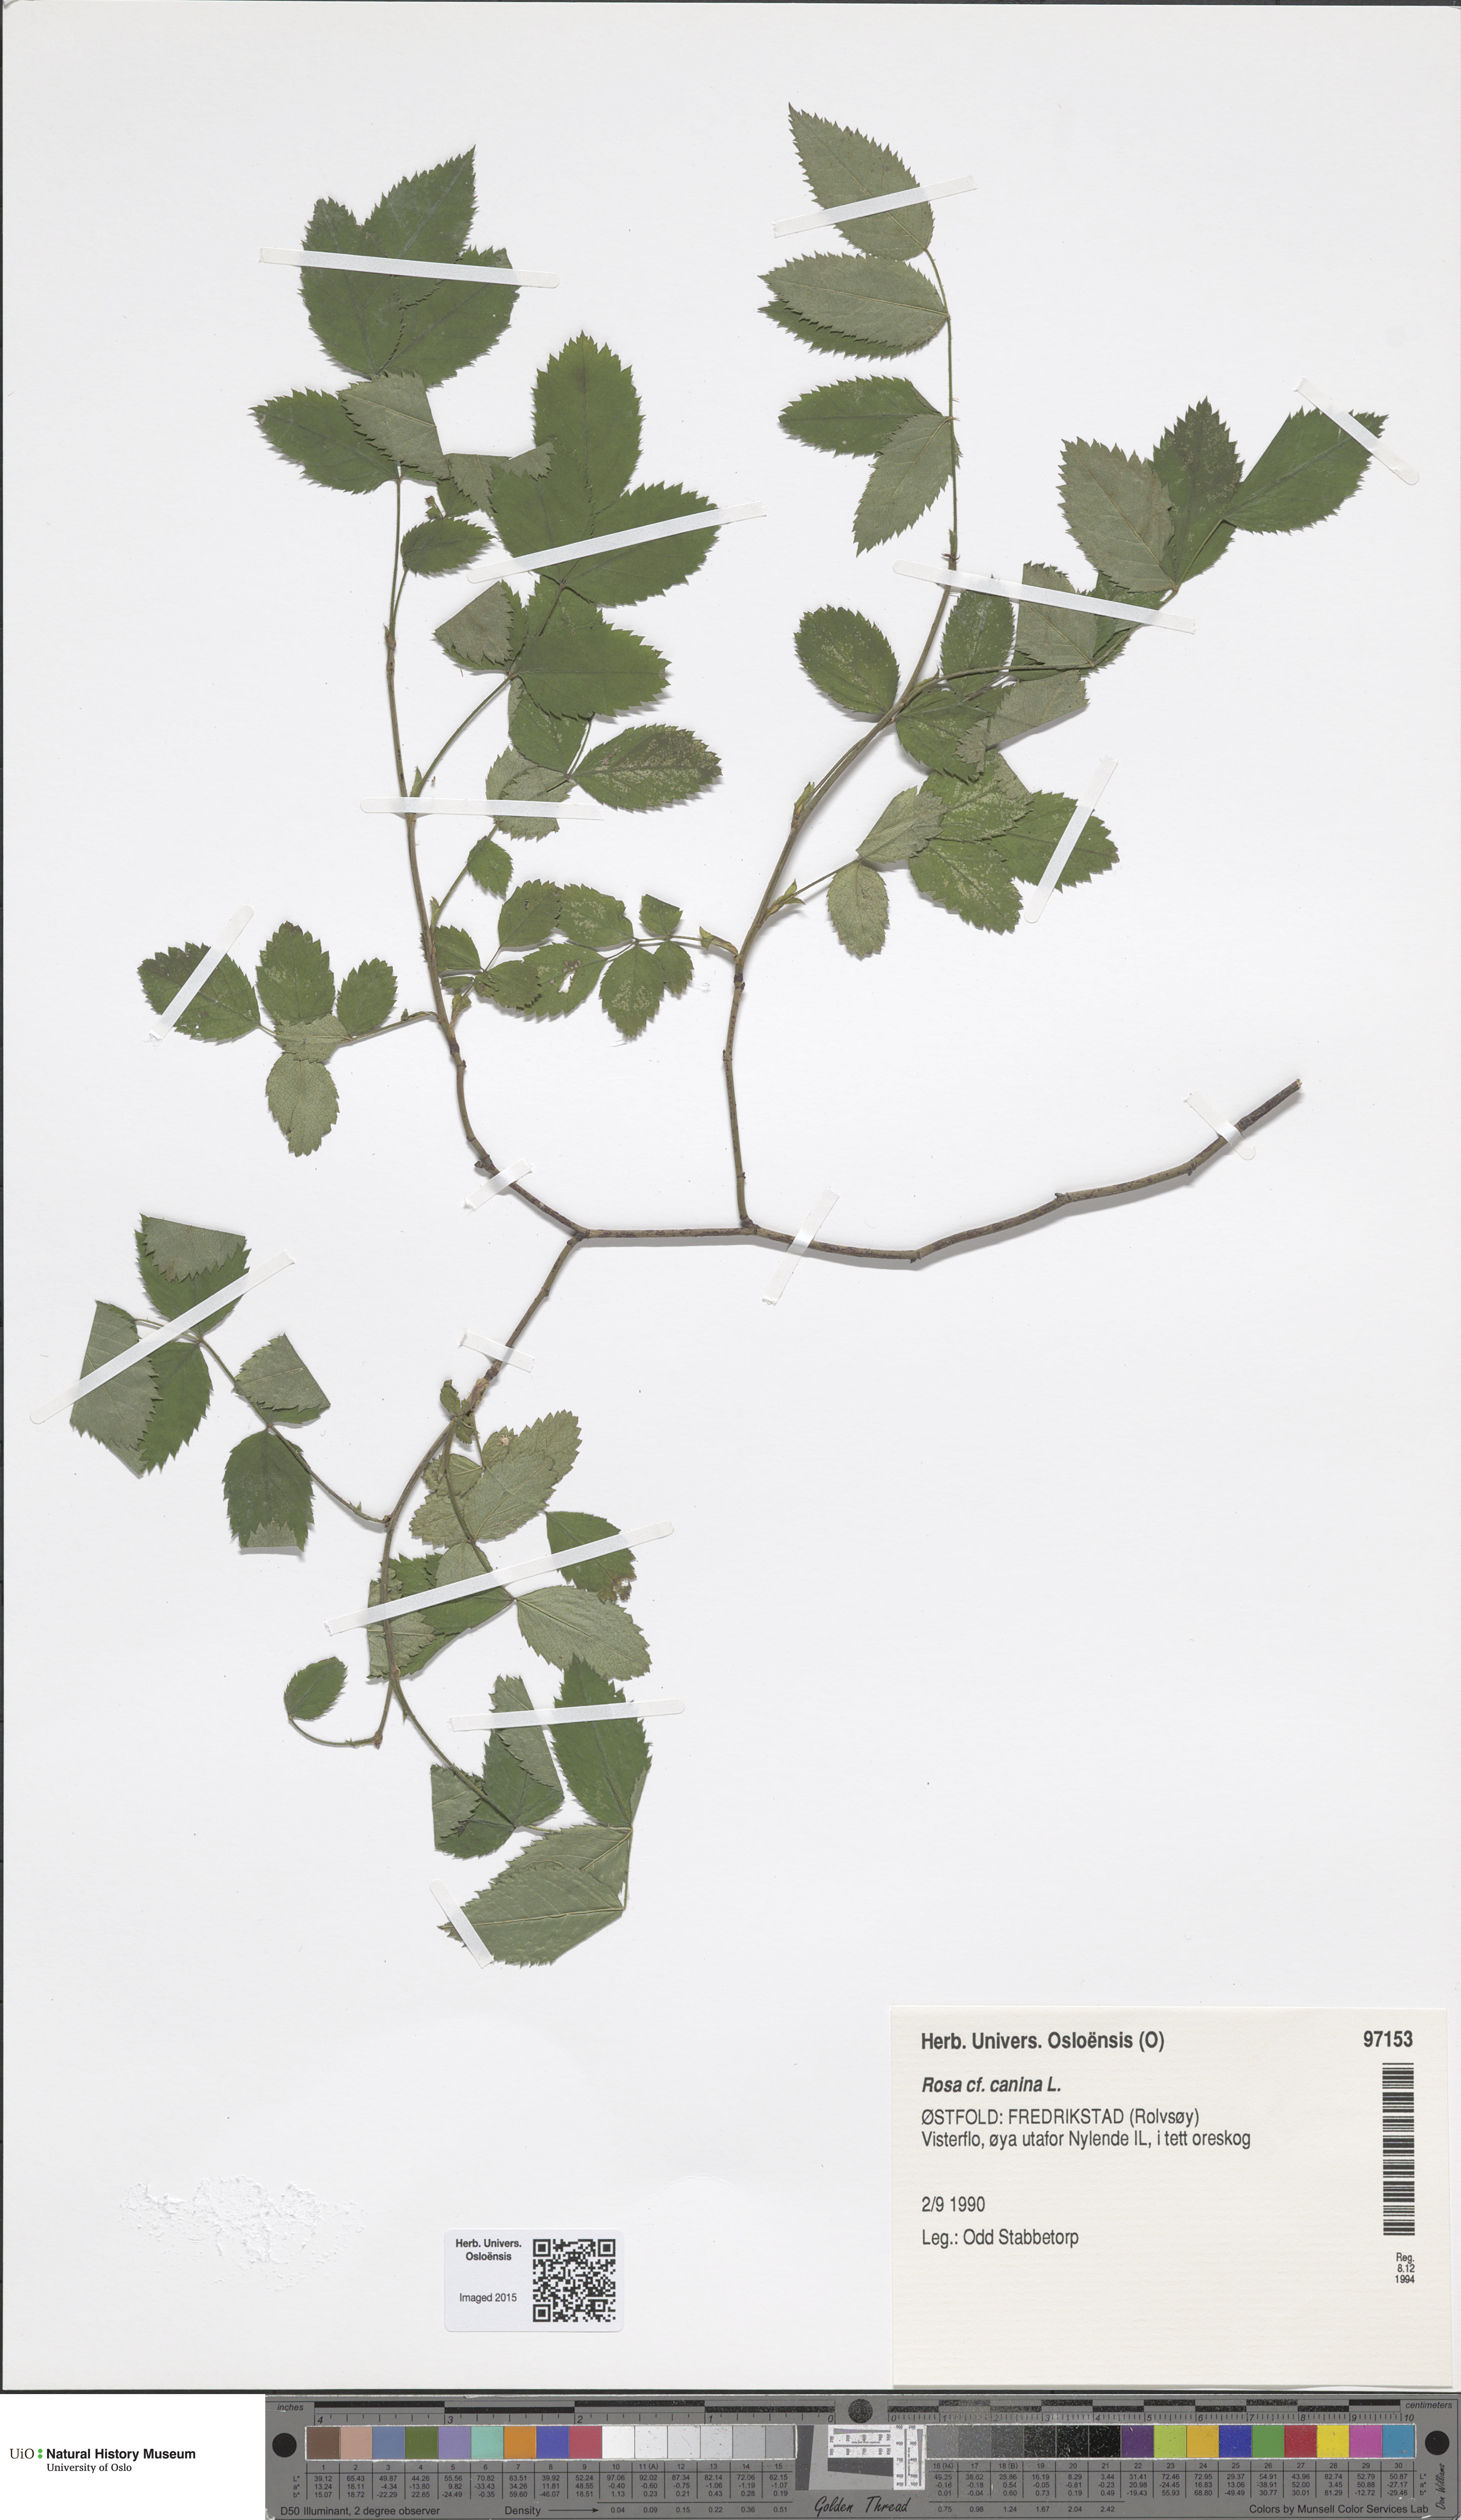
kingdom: Plantae
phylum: Tracheophyta
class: Magnoliopsida
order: Rosales
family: Rosaceae
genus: Rosa
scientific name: Rosa canina
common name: Dog rose
